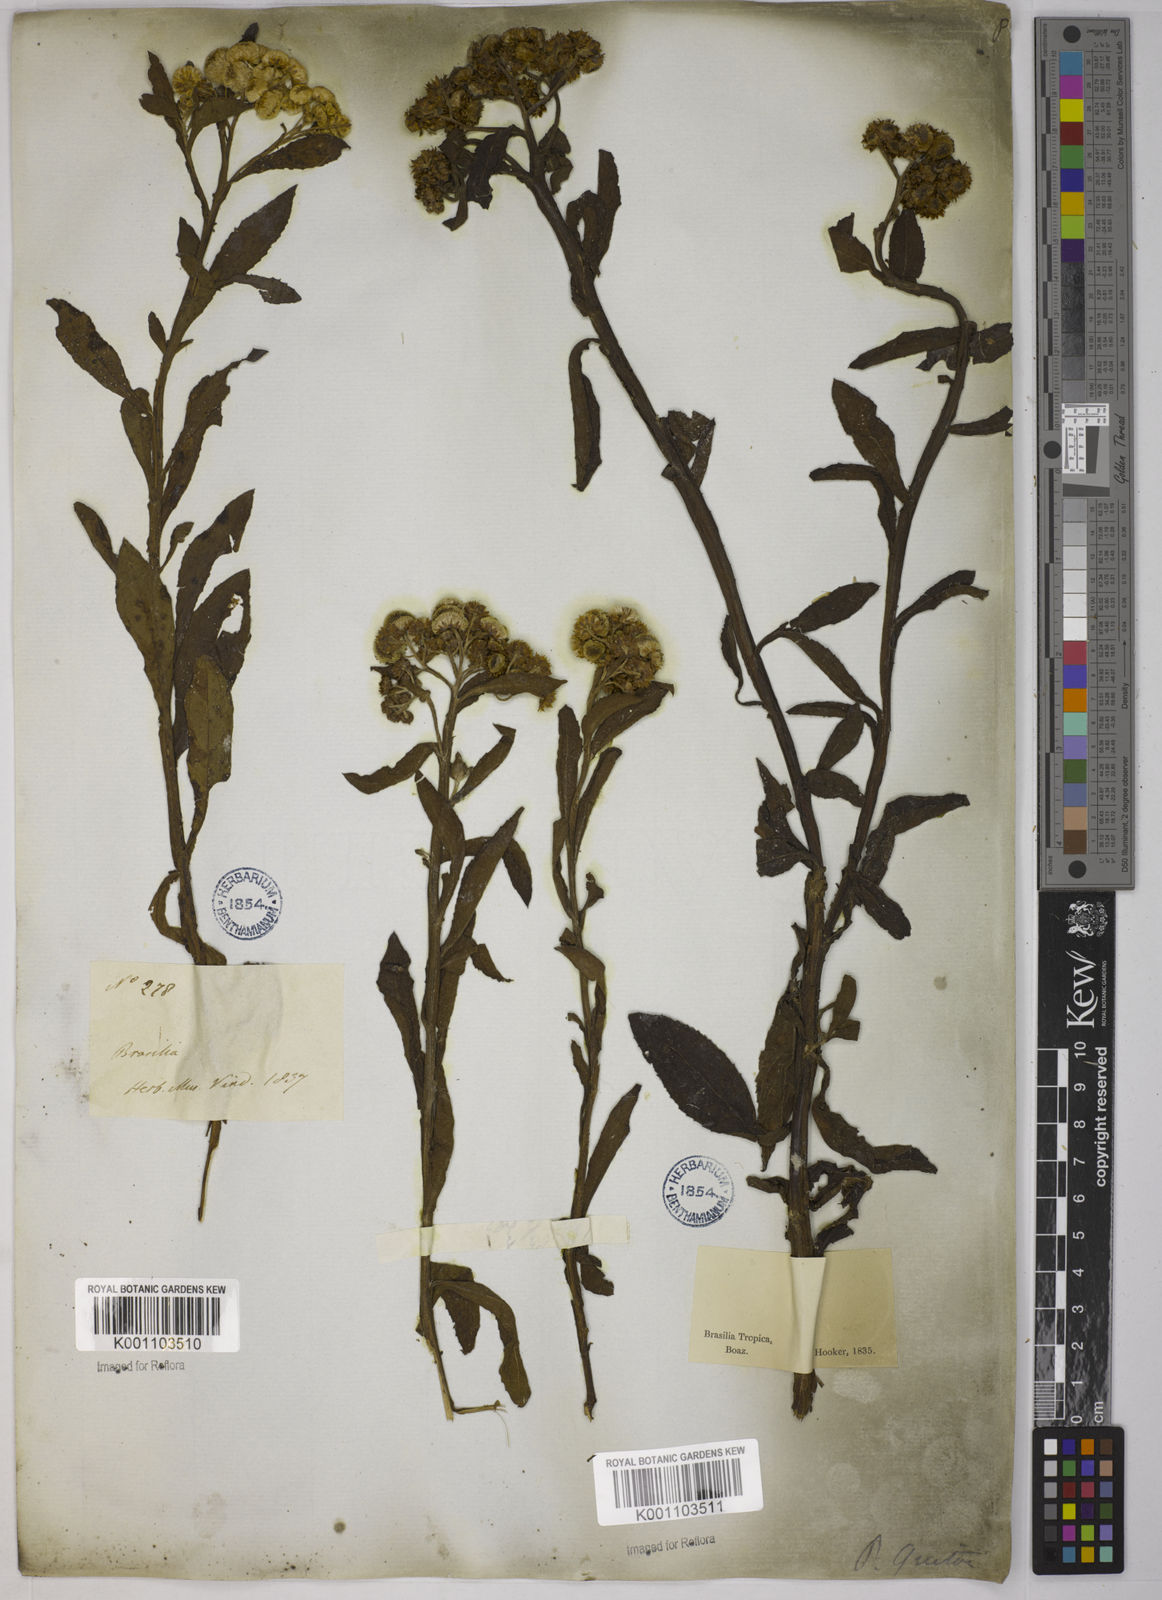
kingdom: Plantae
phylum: Tracheophyta
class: Magnoliopsida
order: Asterales
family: Asteraceae
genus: Pluchea
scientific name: Pluchea sagittalis
